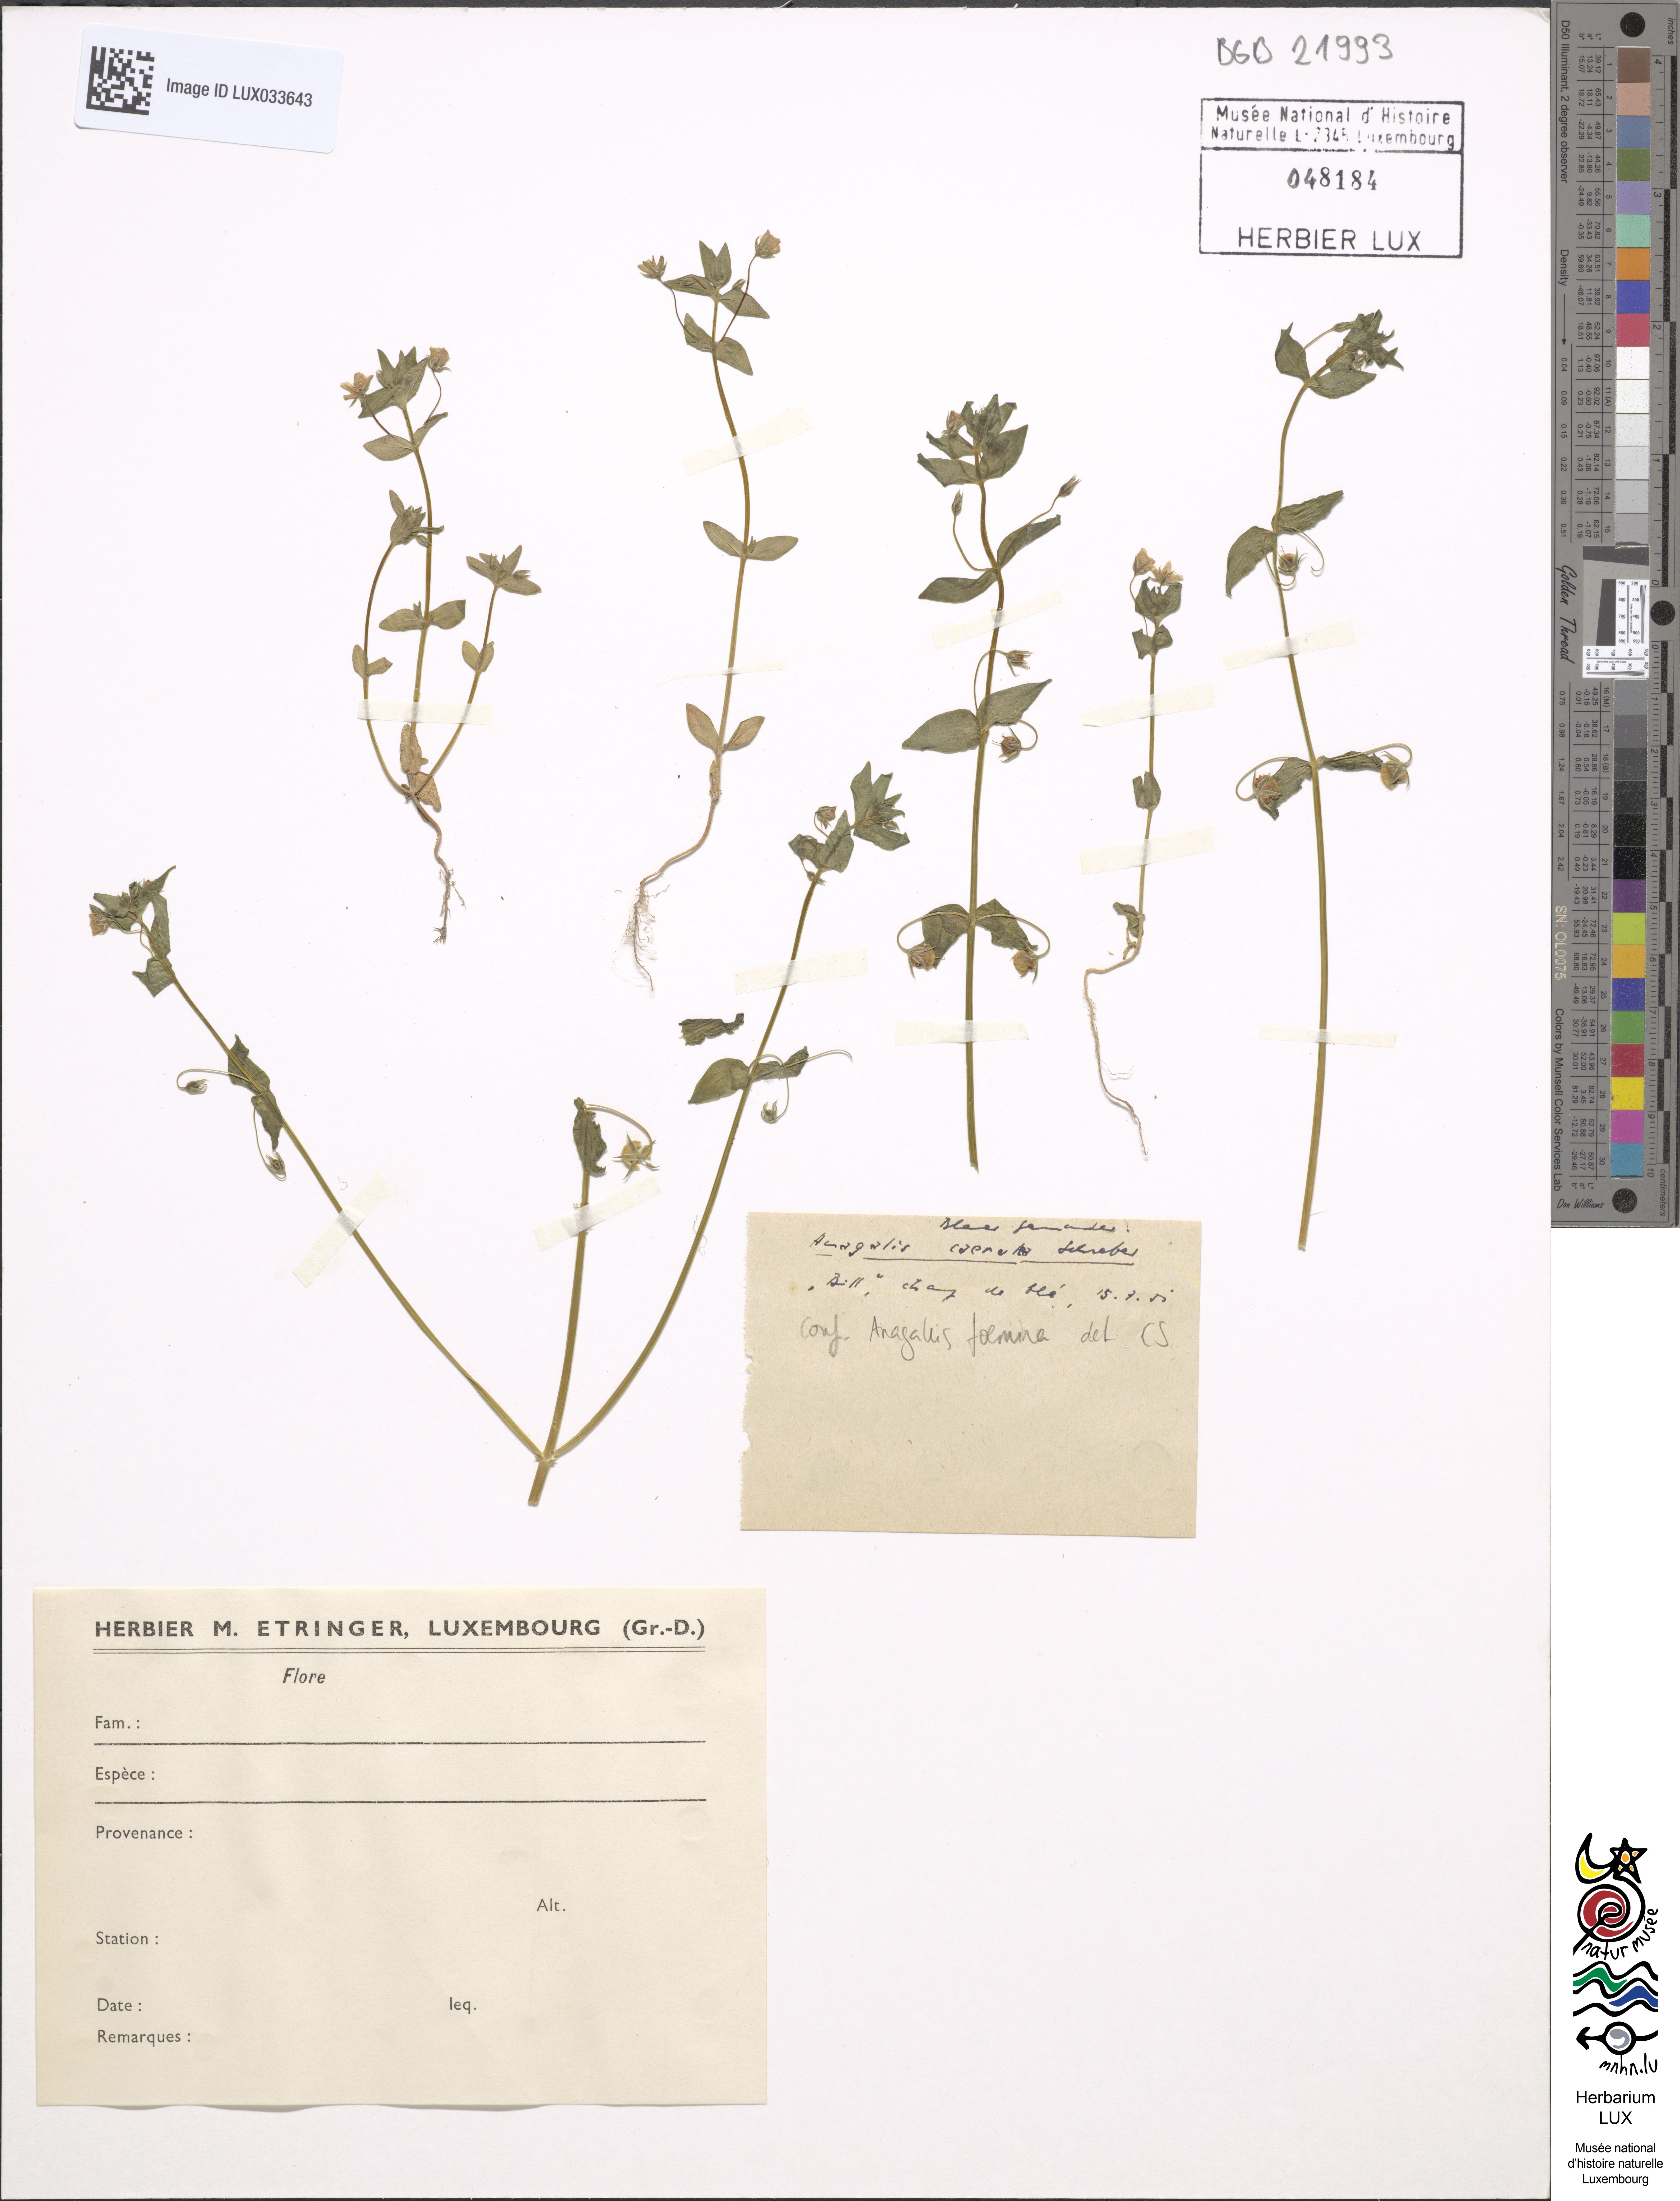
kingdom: Plantae
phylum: Tracheophyta
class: Magnoliopsida
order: Ericales
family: Primulaceae
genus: Lysimachia
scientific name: Lysimachia foemina
